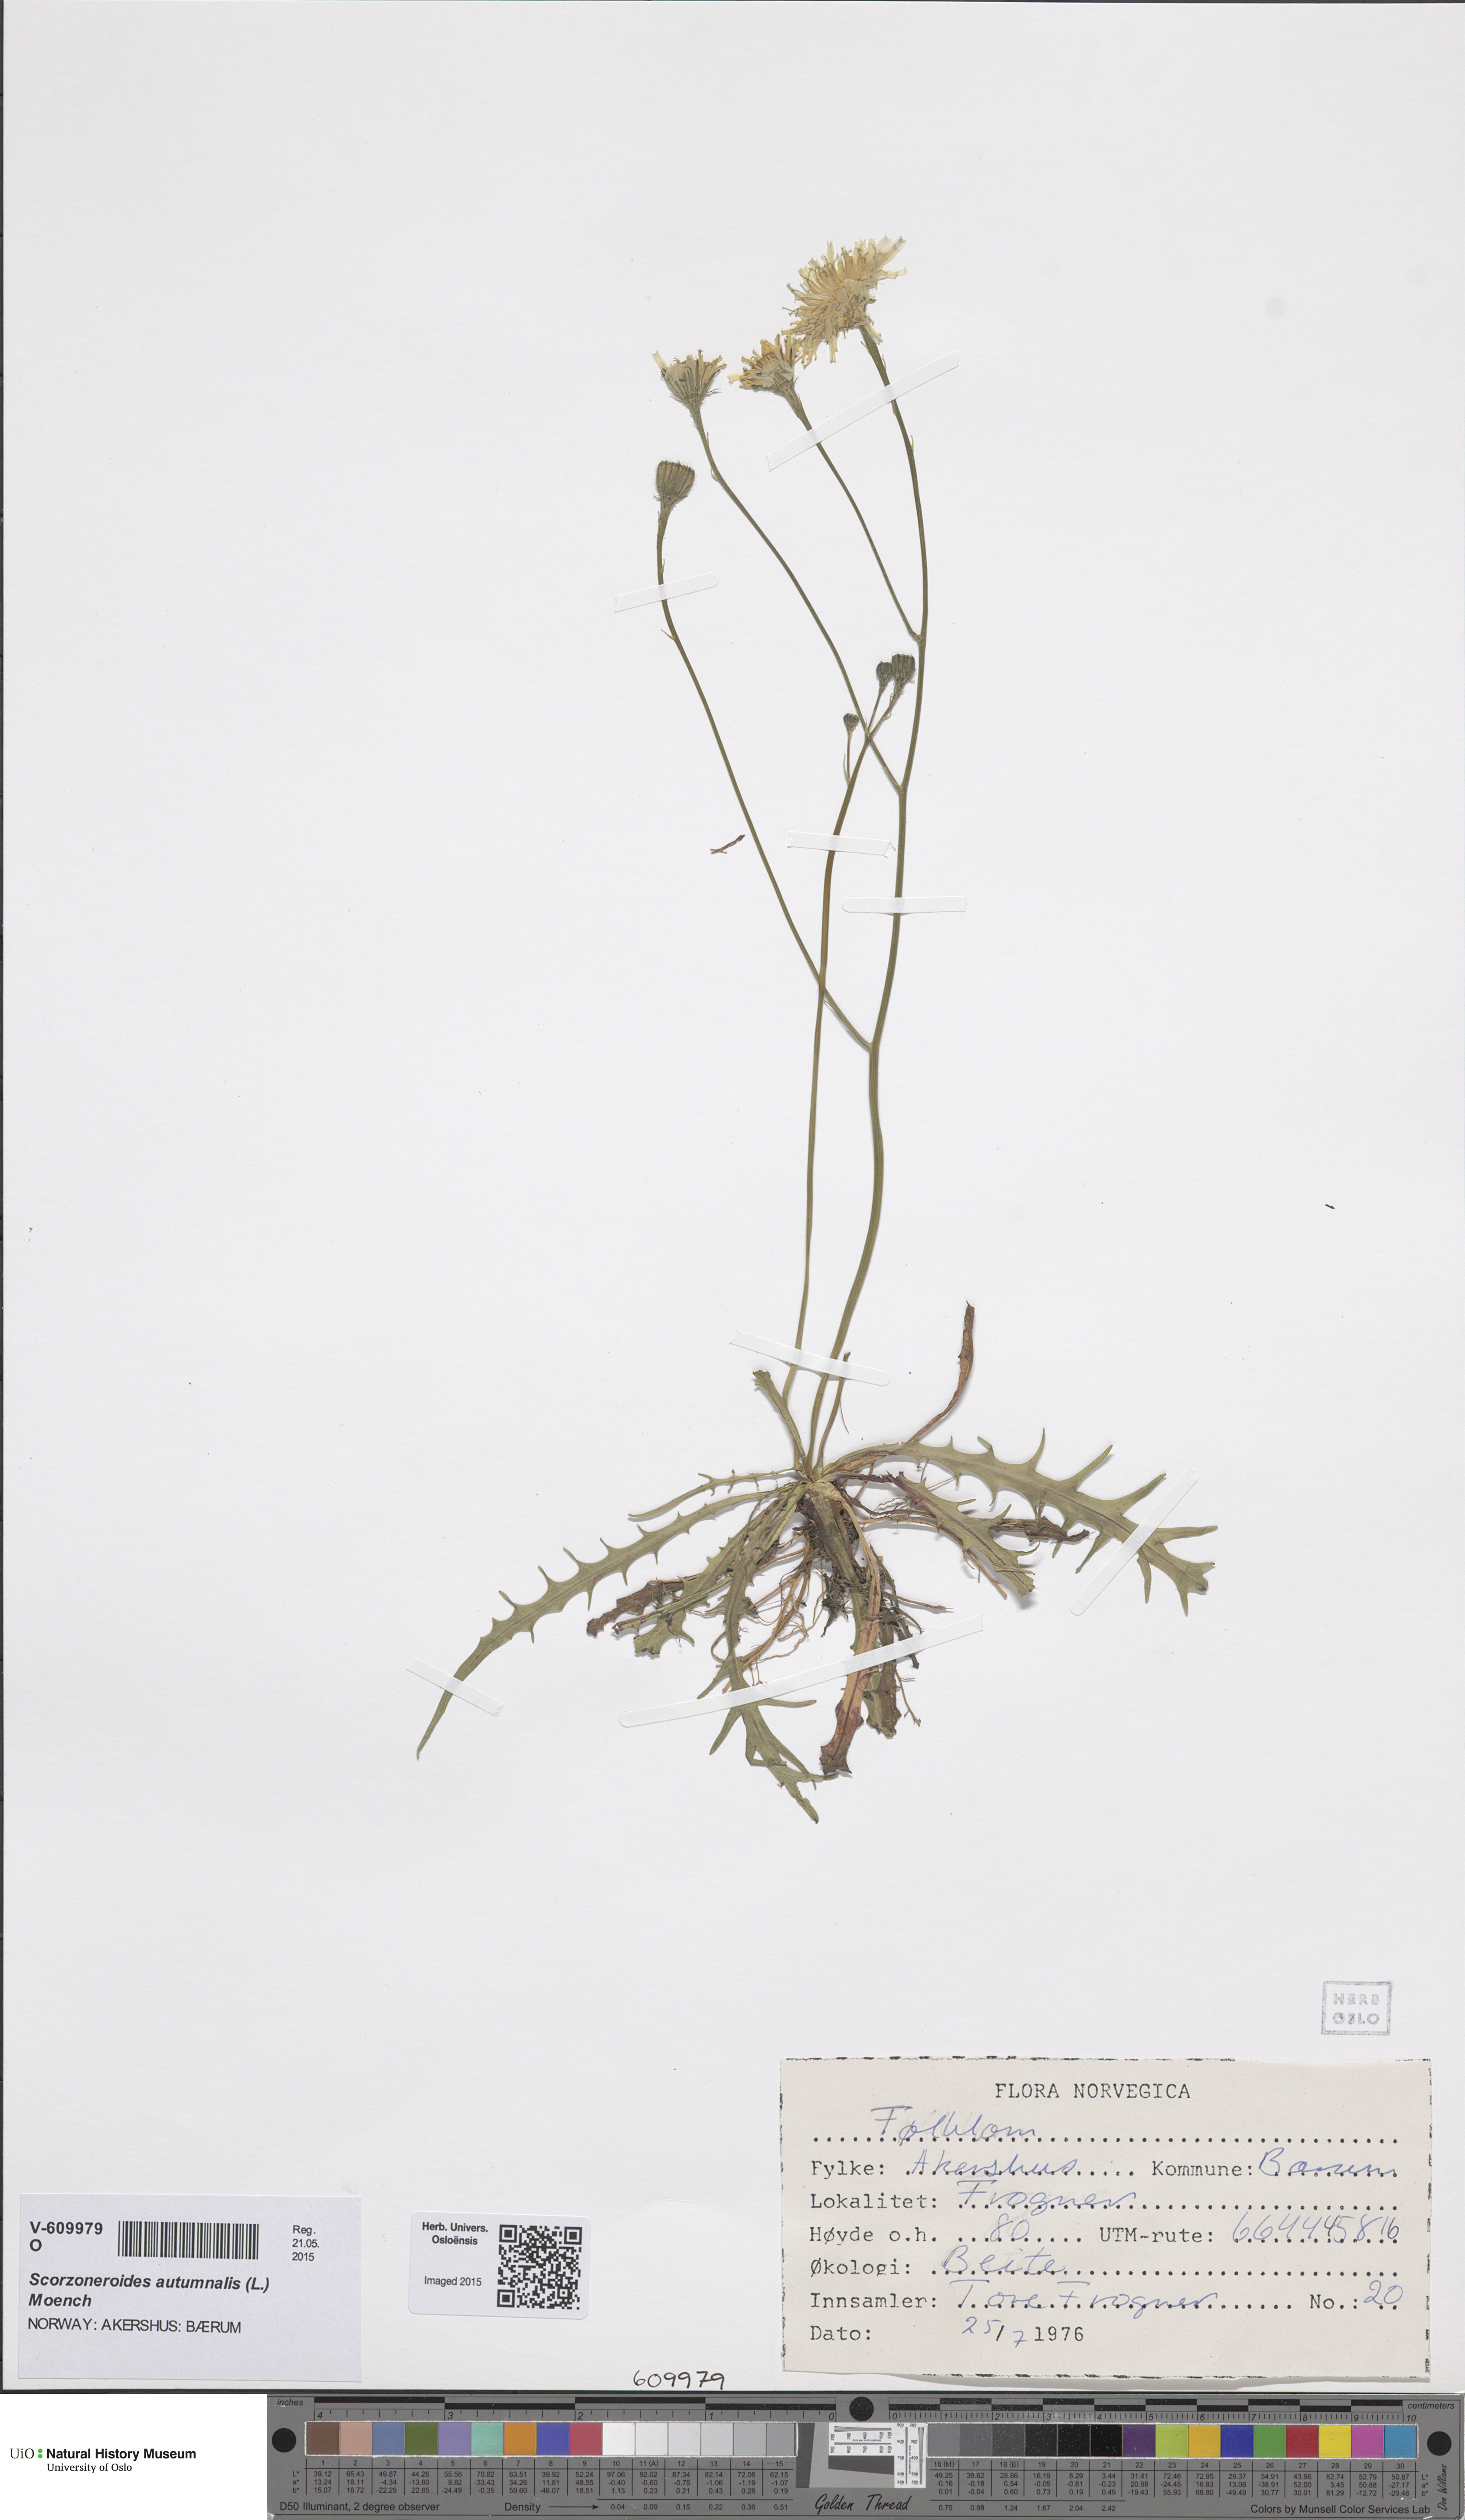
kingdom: Plantae
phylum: Tracheophyta
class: Magnoliopsida
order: Asterales
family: Asteraceae
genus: Scorzoneroides
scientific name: Scorzoneroides autumnalis
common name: Autumn hawkbit
